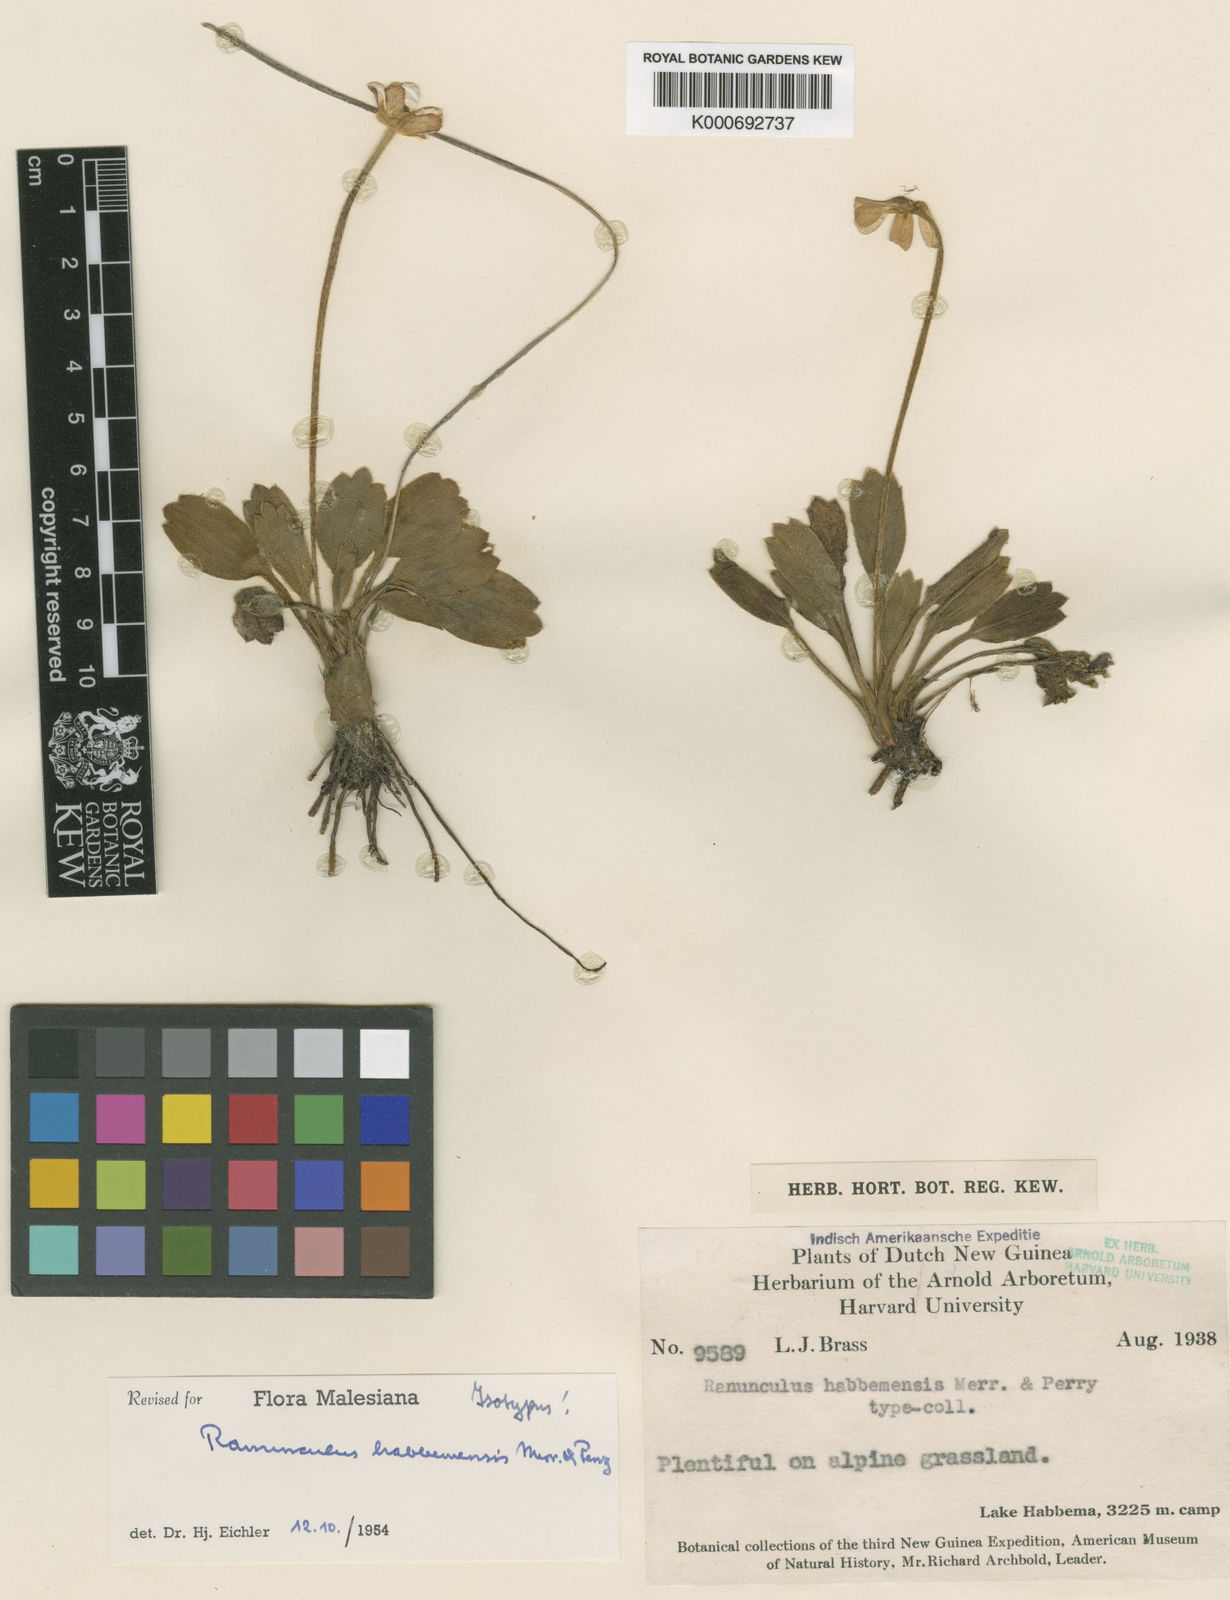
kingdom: Plantae
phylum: Tracheophyta
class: Magnoliopsida
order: Ranunculales
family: Ranunculaceae
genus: Ranunculus
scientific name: Ranunculus habbemensis
